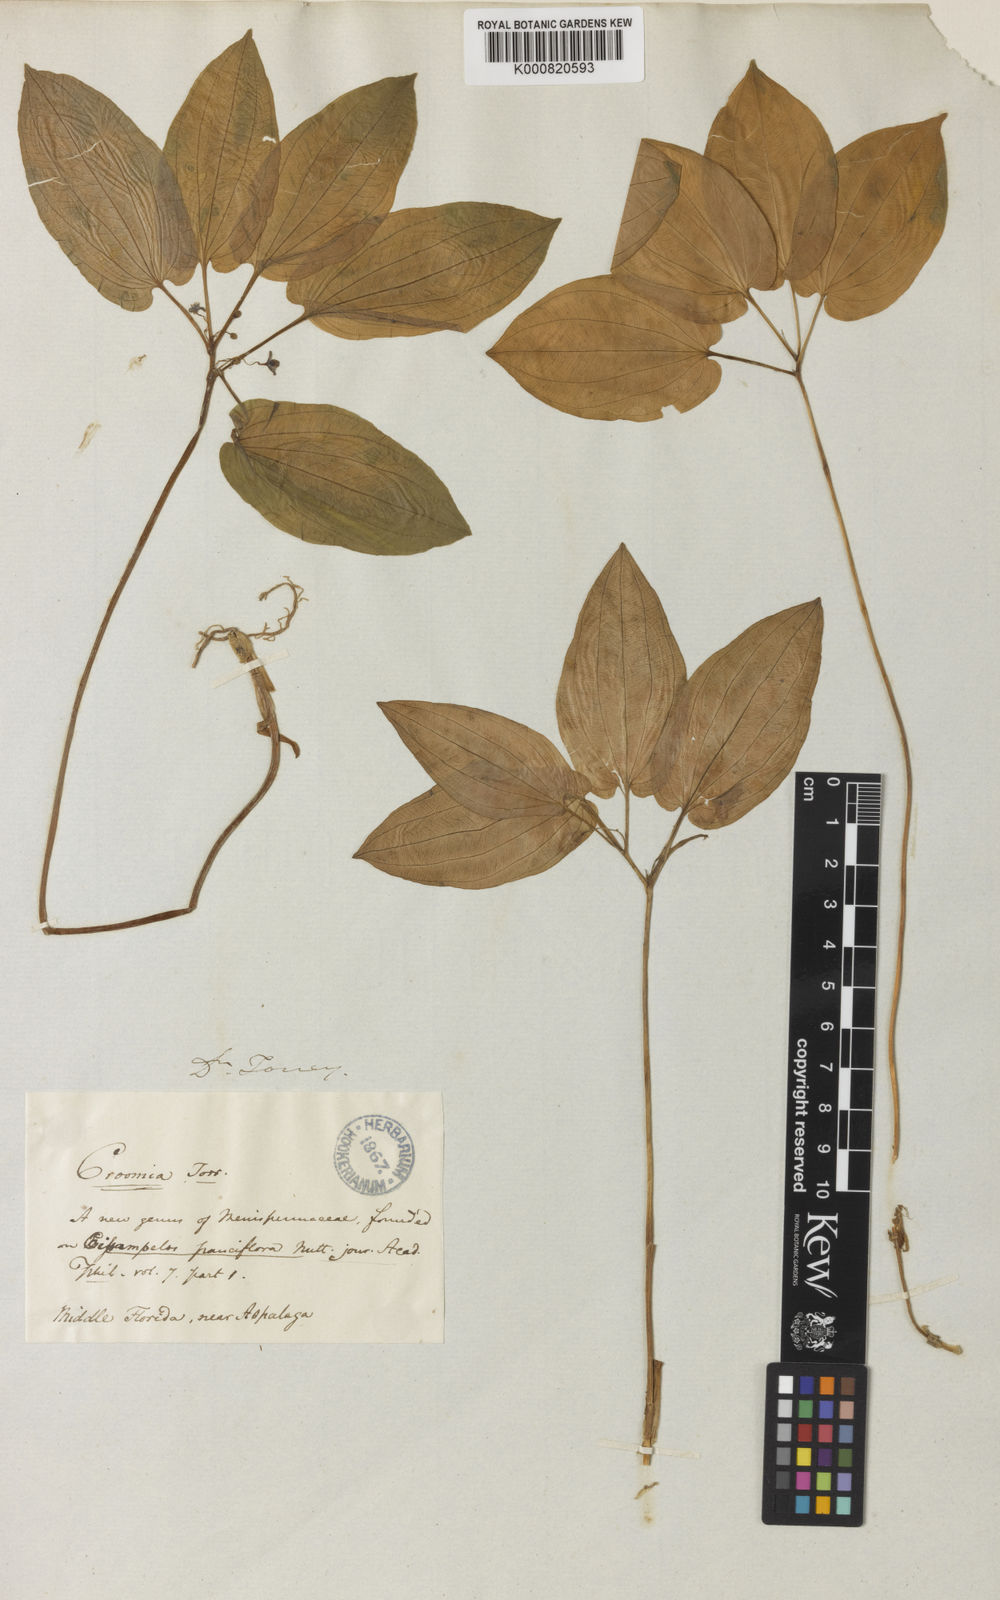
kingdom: Plantae
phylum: Tracheophyta
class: Liliopsida
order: Pandanales
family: Stemonaceae
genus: Croomia
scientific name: Croomia pauciflora
